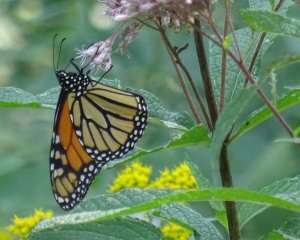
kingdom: Animalia
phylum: Arthropoda
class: Insecta
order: Lepidoptera
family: Nymphalidae
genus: Danaus
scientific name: Danaus plexippus
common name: Monarch
